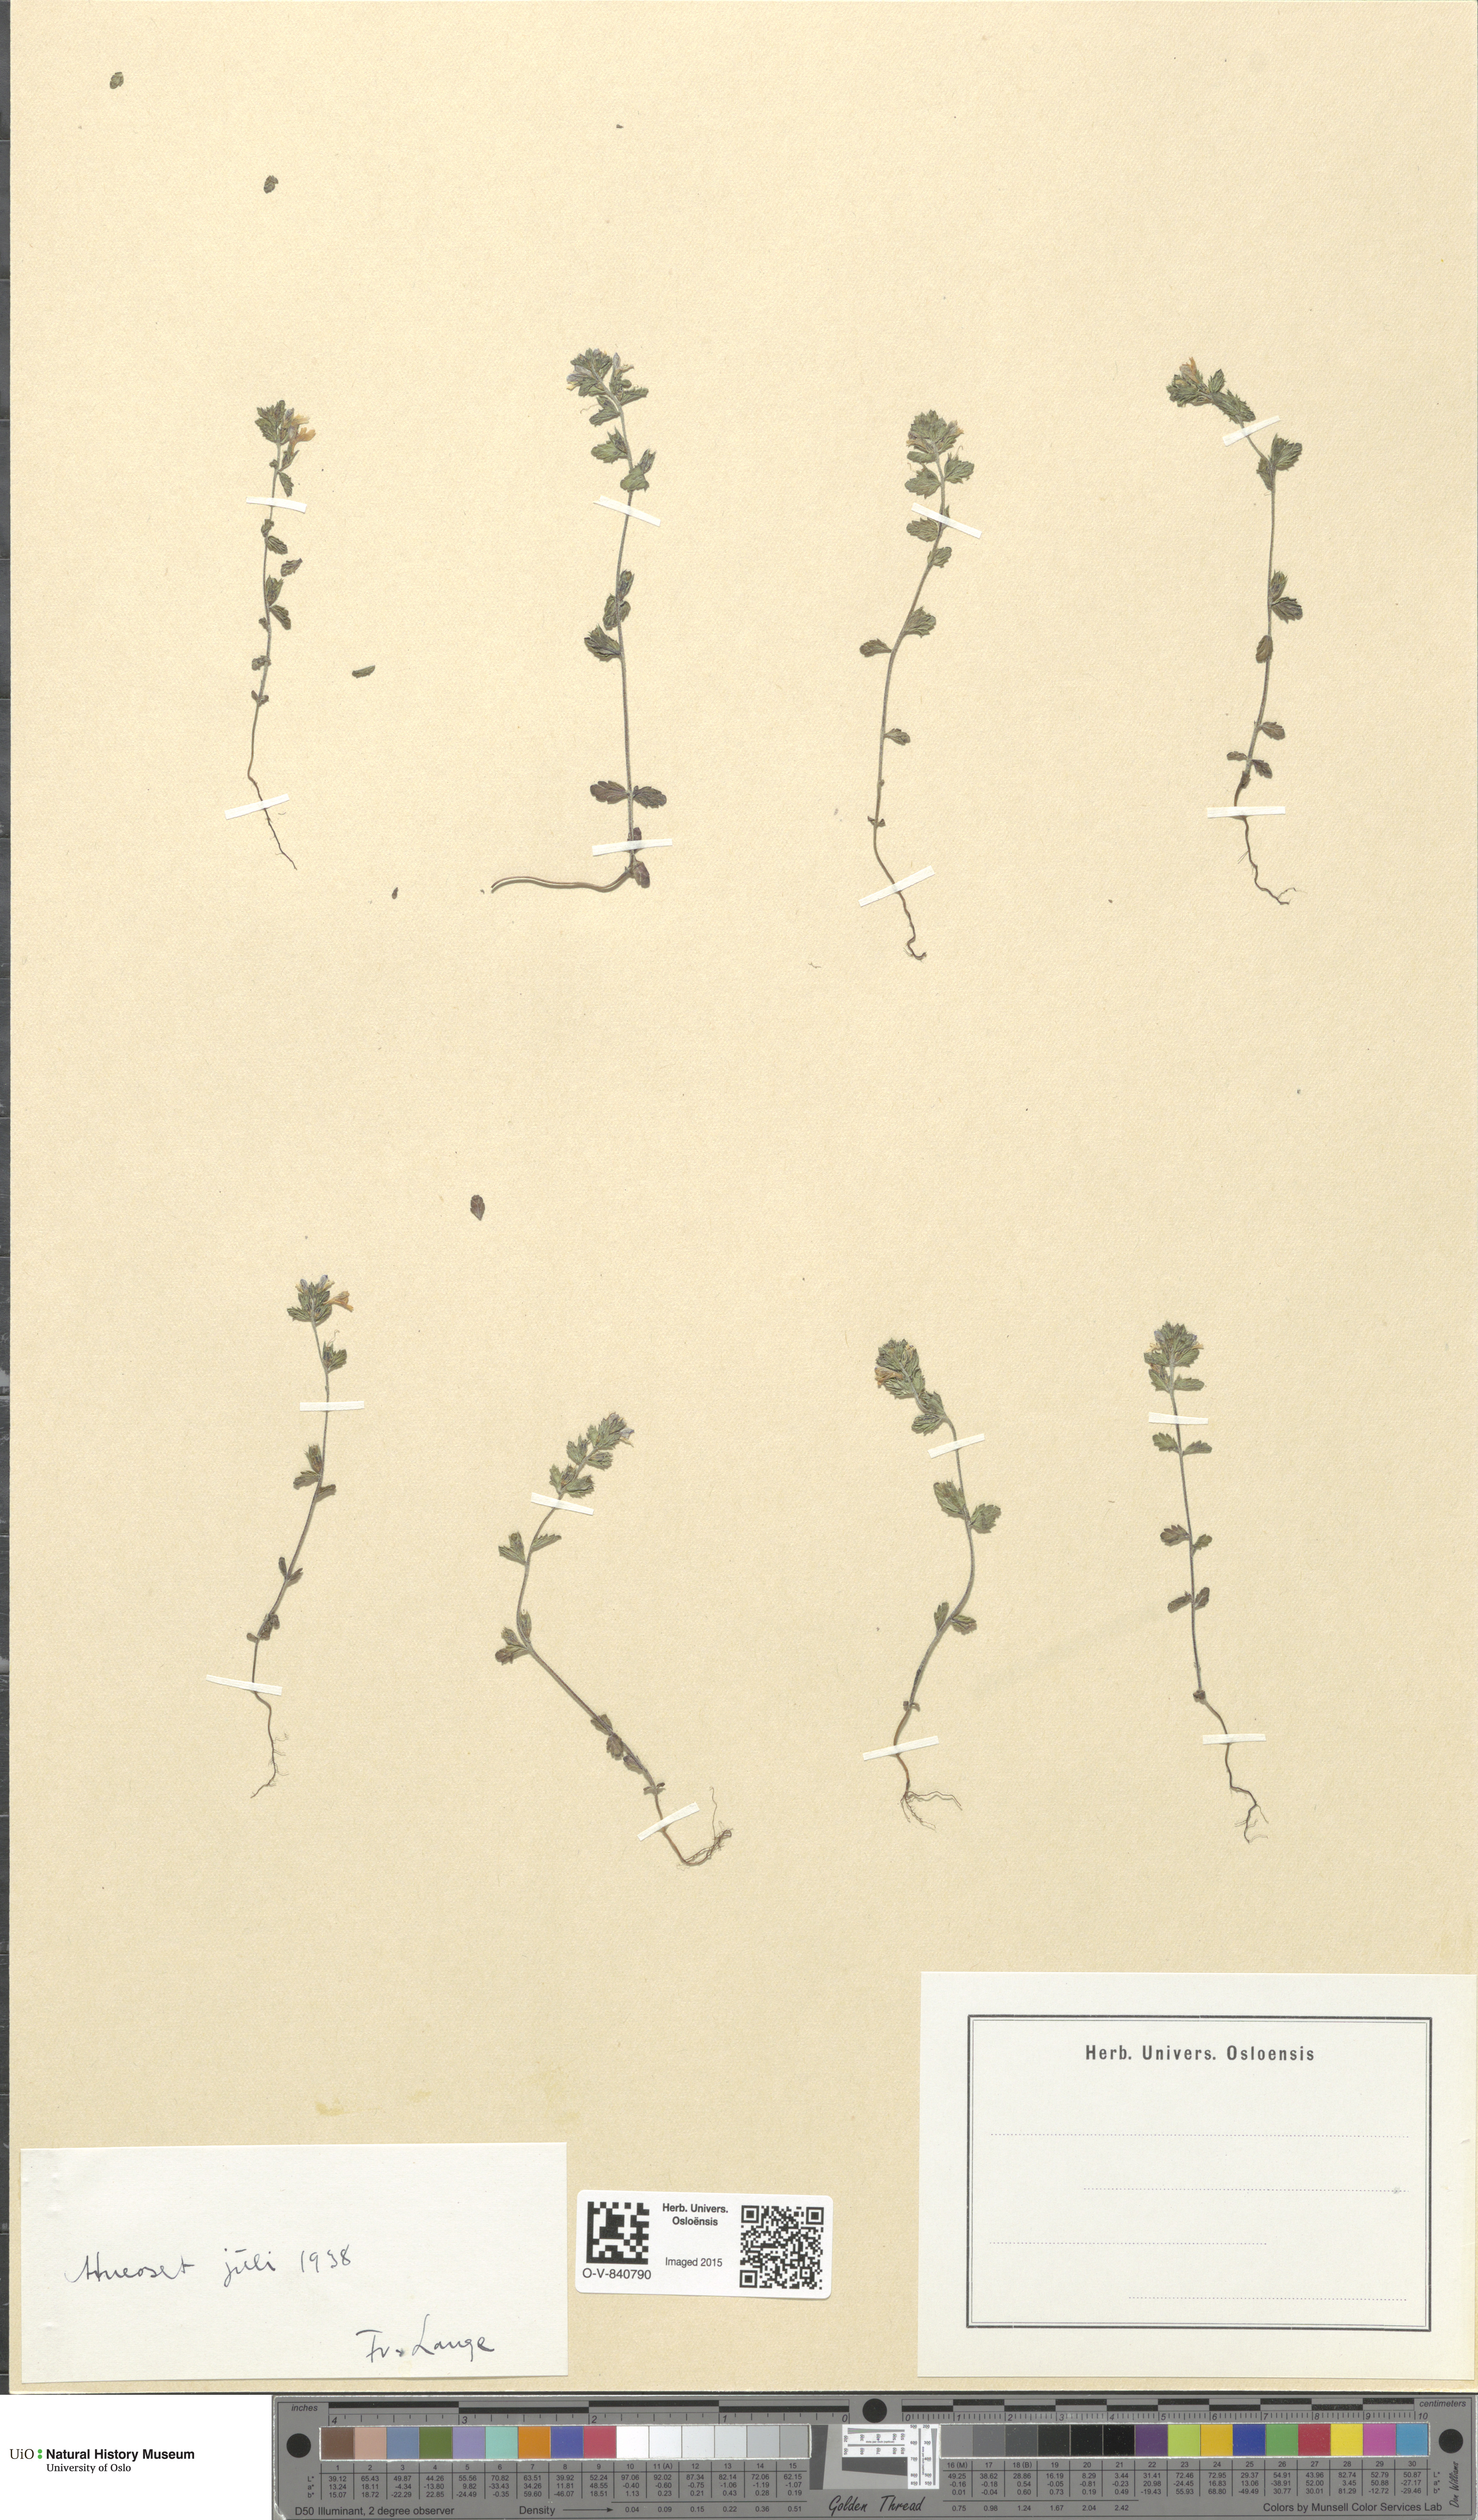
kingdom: Plantae
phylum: Tracheophyta
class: Magnoliopsida
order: Lamiales
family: Orobanchaceae
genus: Euphrasia
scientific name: Euphrasia
